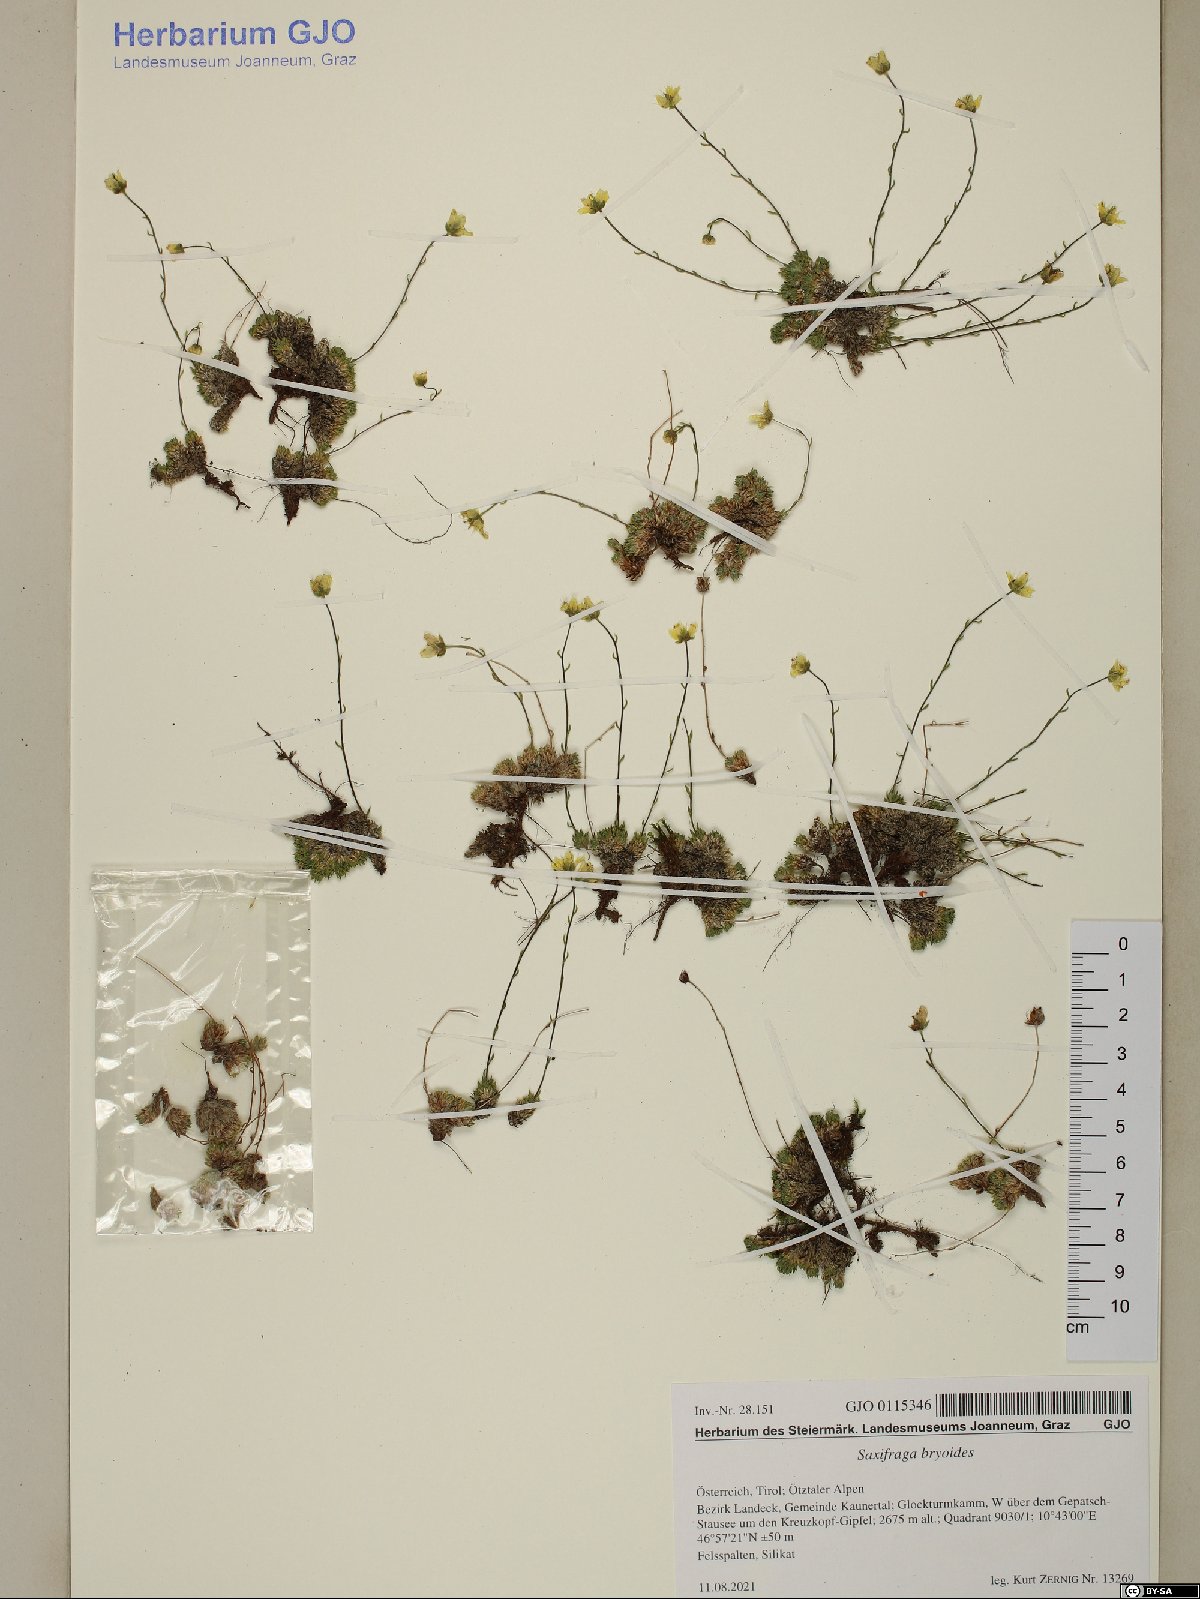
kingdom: Plantae
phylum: Tracheophyta
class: Magnoliopsida
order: Saxifragales
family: Saxifragaceae
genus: Saxifraga
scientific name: Saxifraga bryoides
